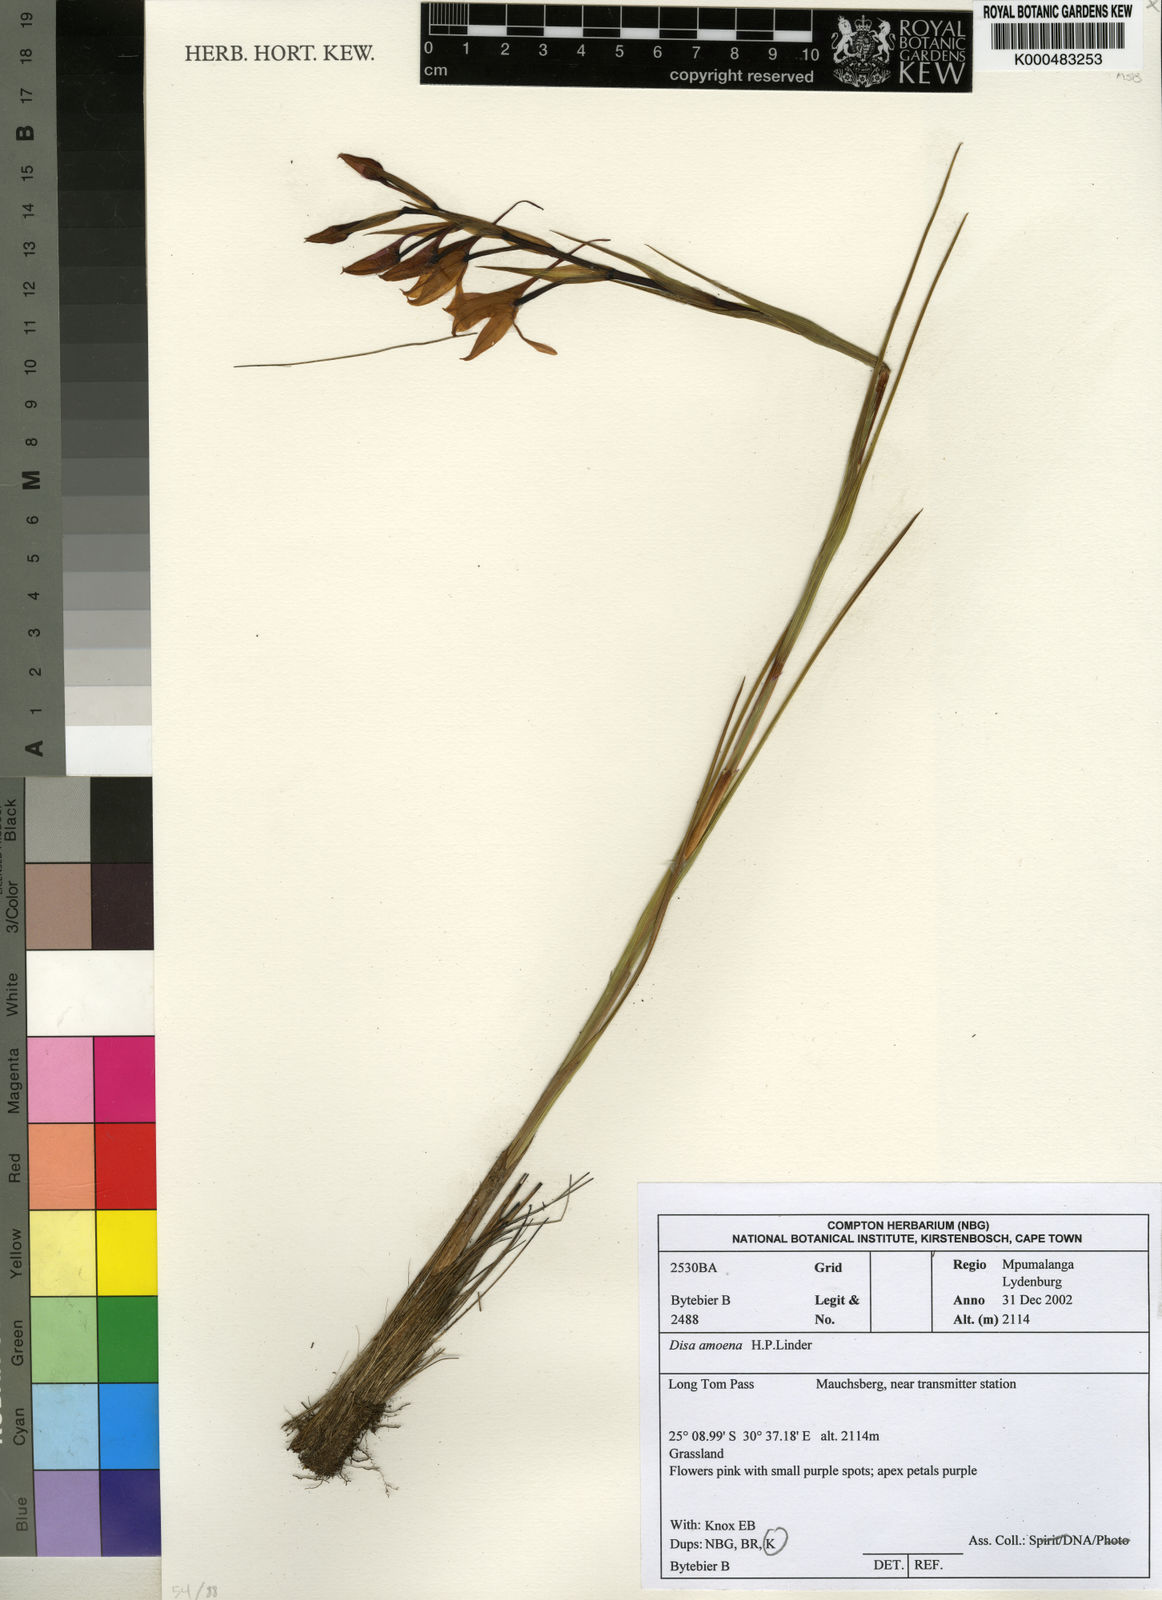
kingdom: Plantae
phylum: Tracheophyta
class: Liliopsida
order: Asparagales
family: Orchidaceae
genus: Disa
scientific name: Disa amoena
